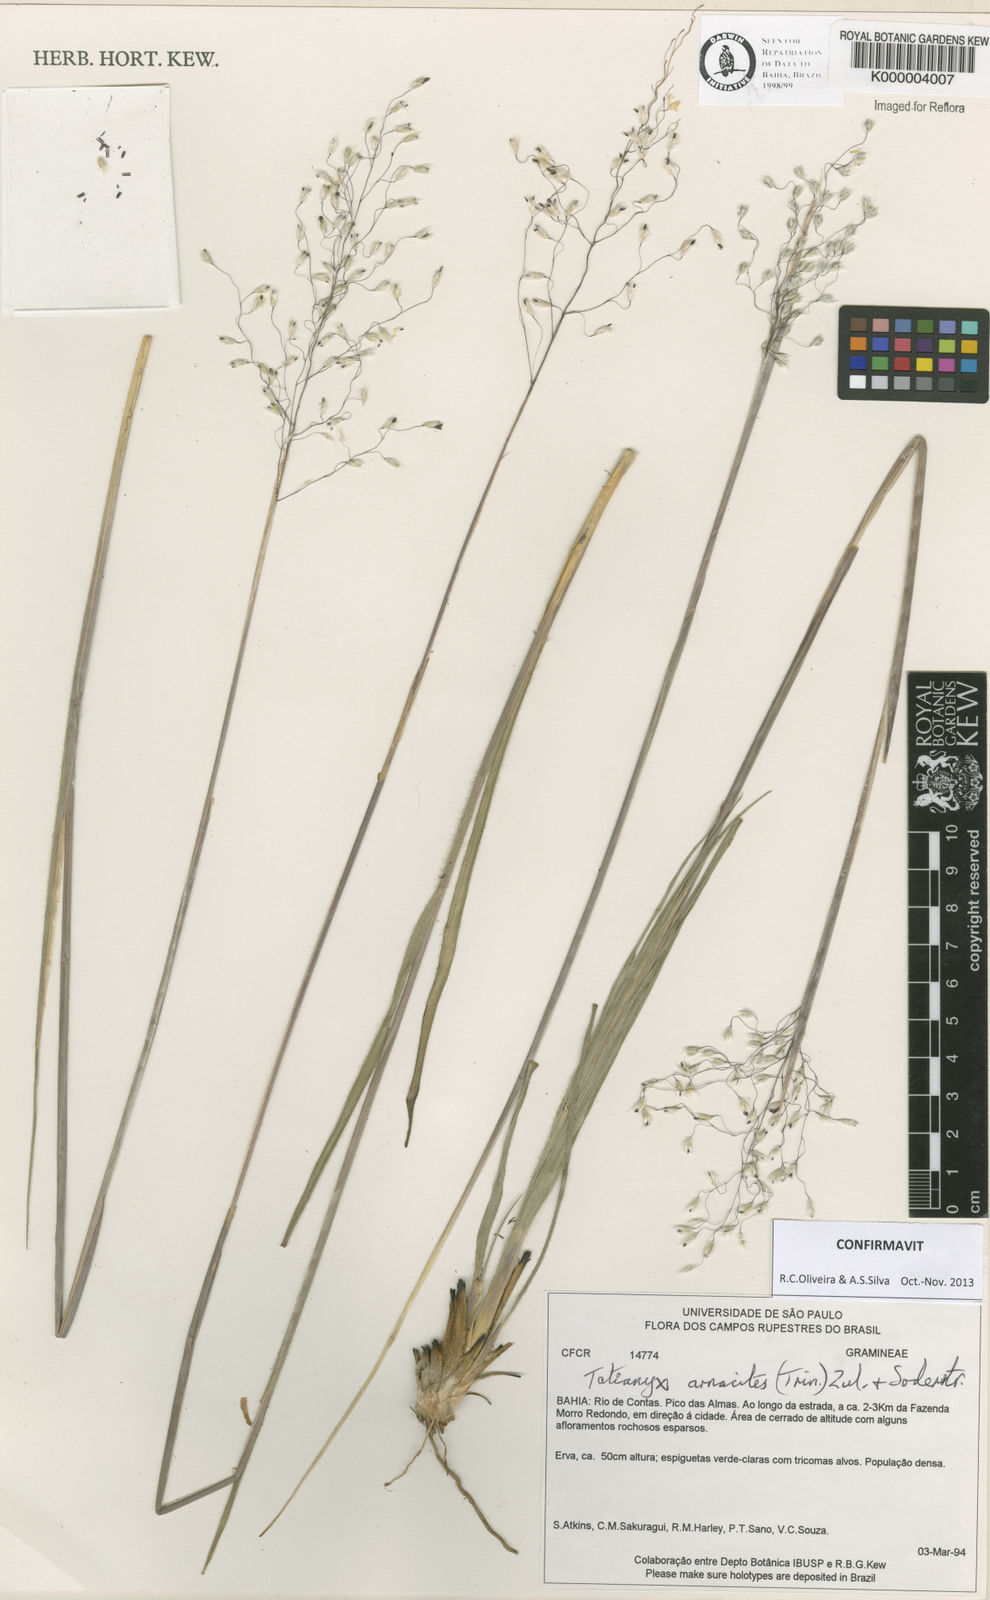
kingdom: Plantae
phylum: Tracheophyta
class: Liliopsida
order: Poales
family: Poaceae
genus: Tatianyx
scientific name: Tatianyx arnacites
